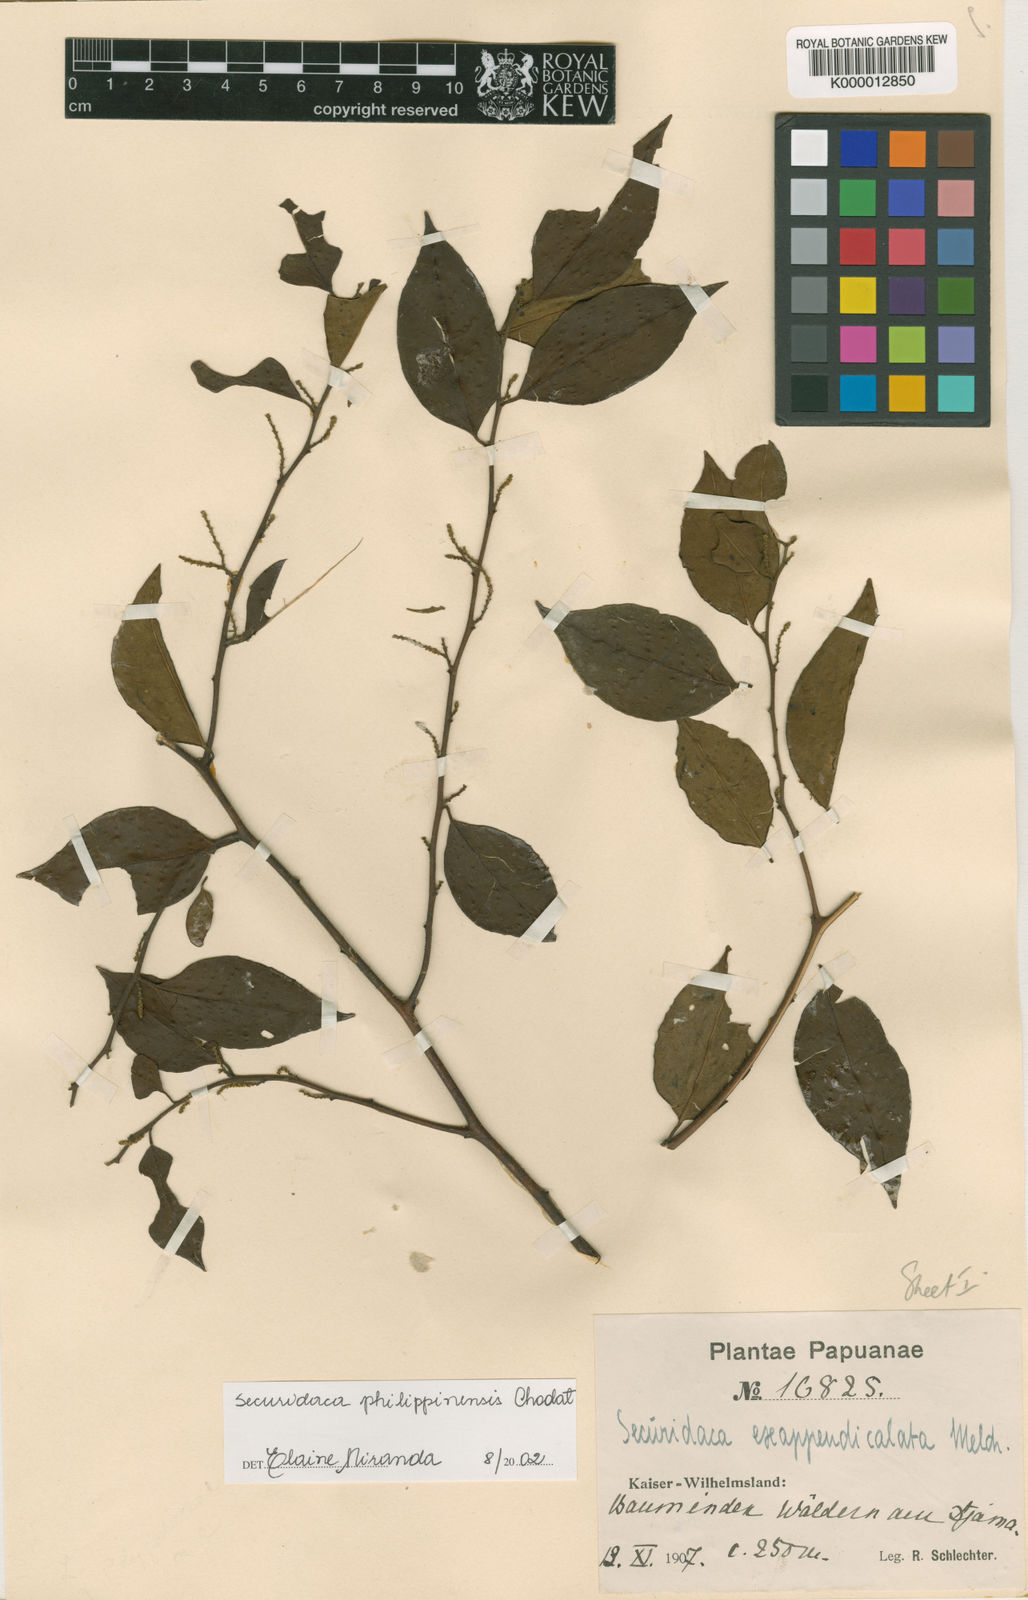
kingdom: Plantae
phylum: Tracheophyta
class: Magnoliopsida
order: Fabales
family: Polygalaceae
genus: Securidaca
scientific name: Securidaca philippinensis
